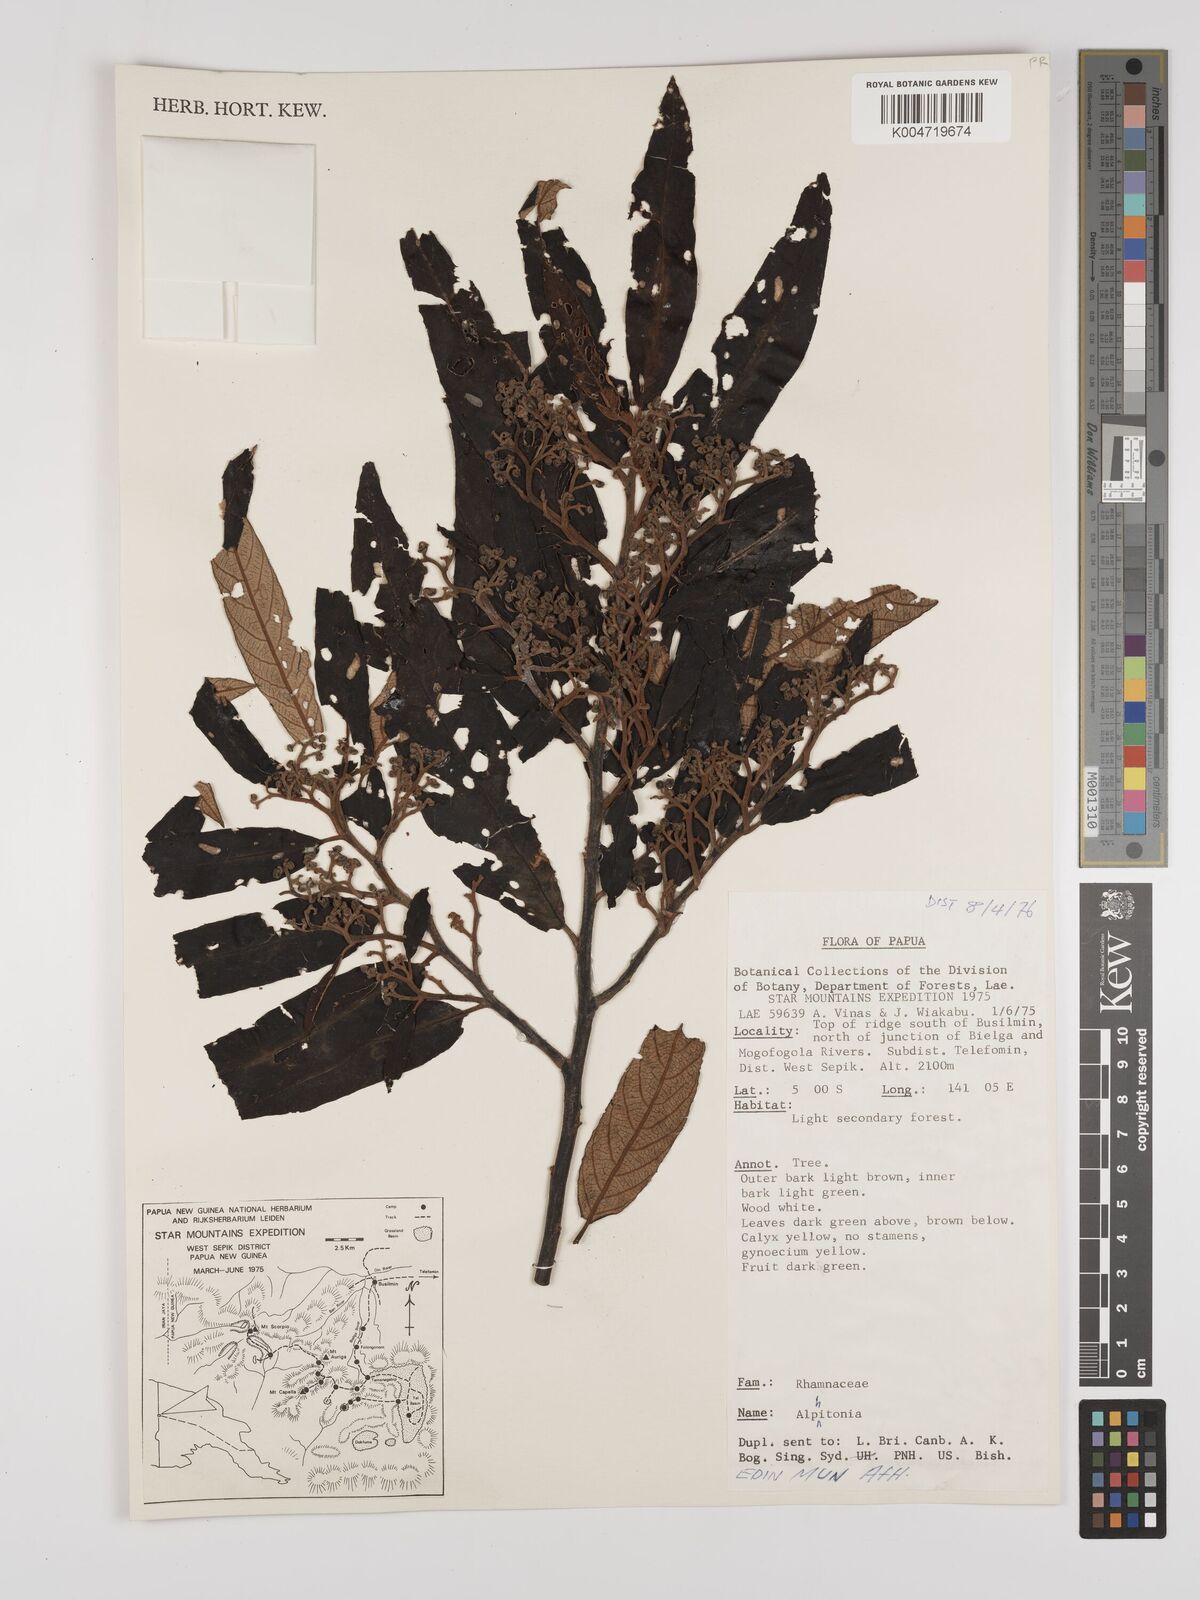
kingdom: Plantae
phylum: Tracheophyta
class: Magnoliopsida
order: Rosales
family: Rhamnaceae
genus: Alphitonia
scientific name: Alphitonia
